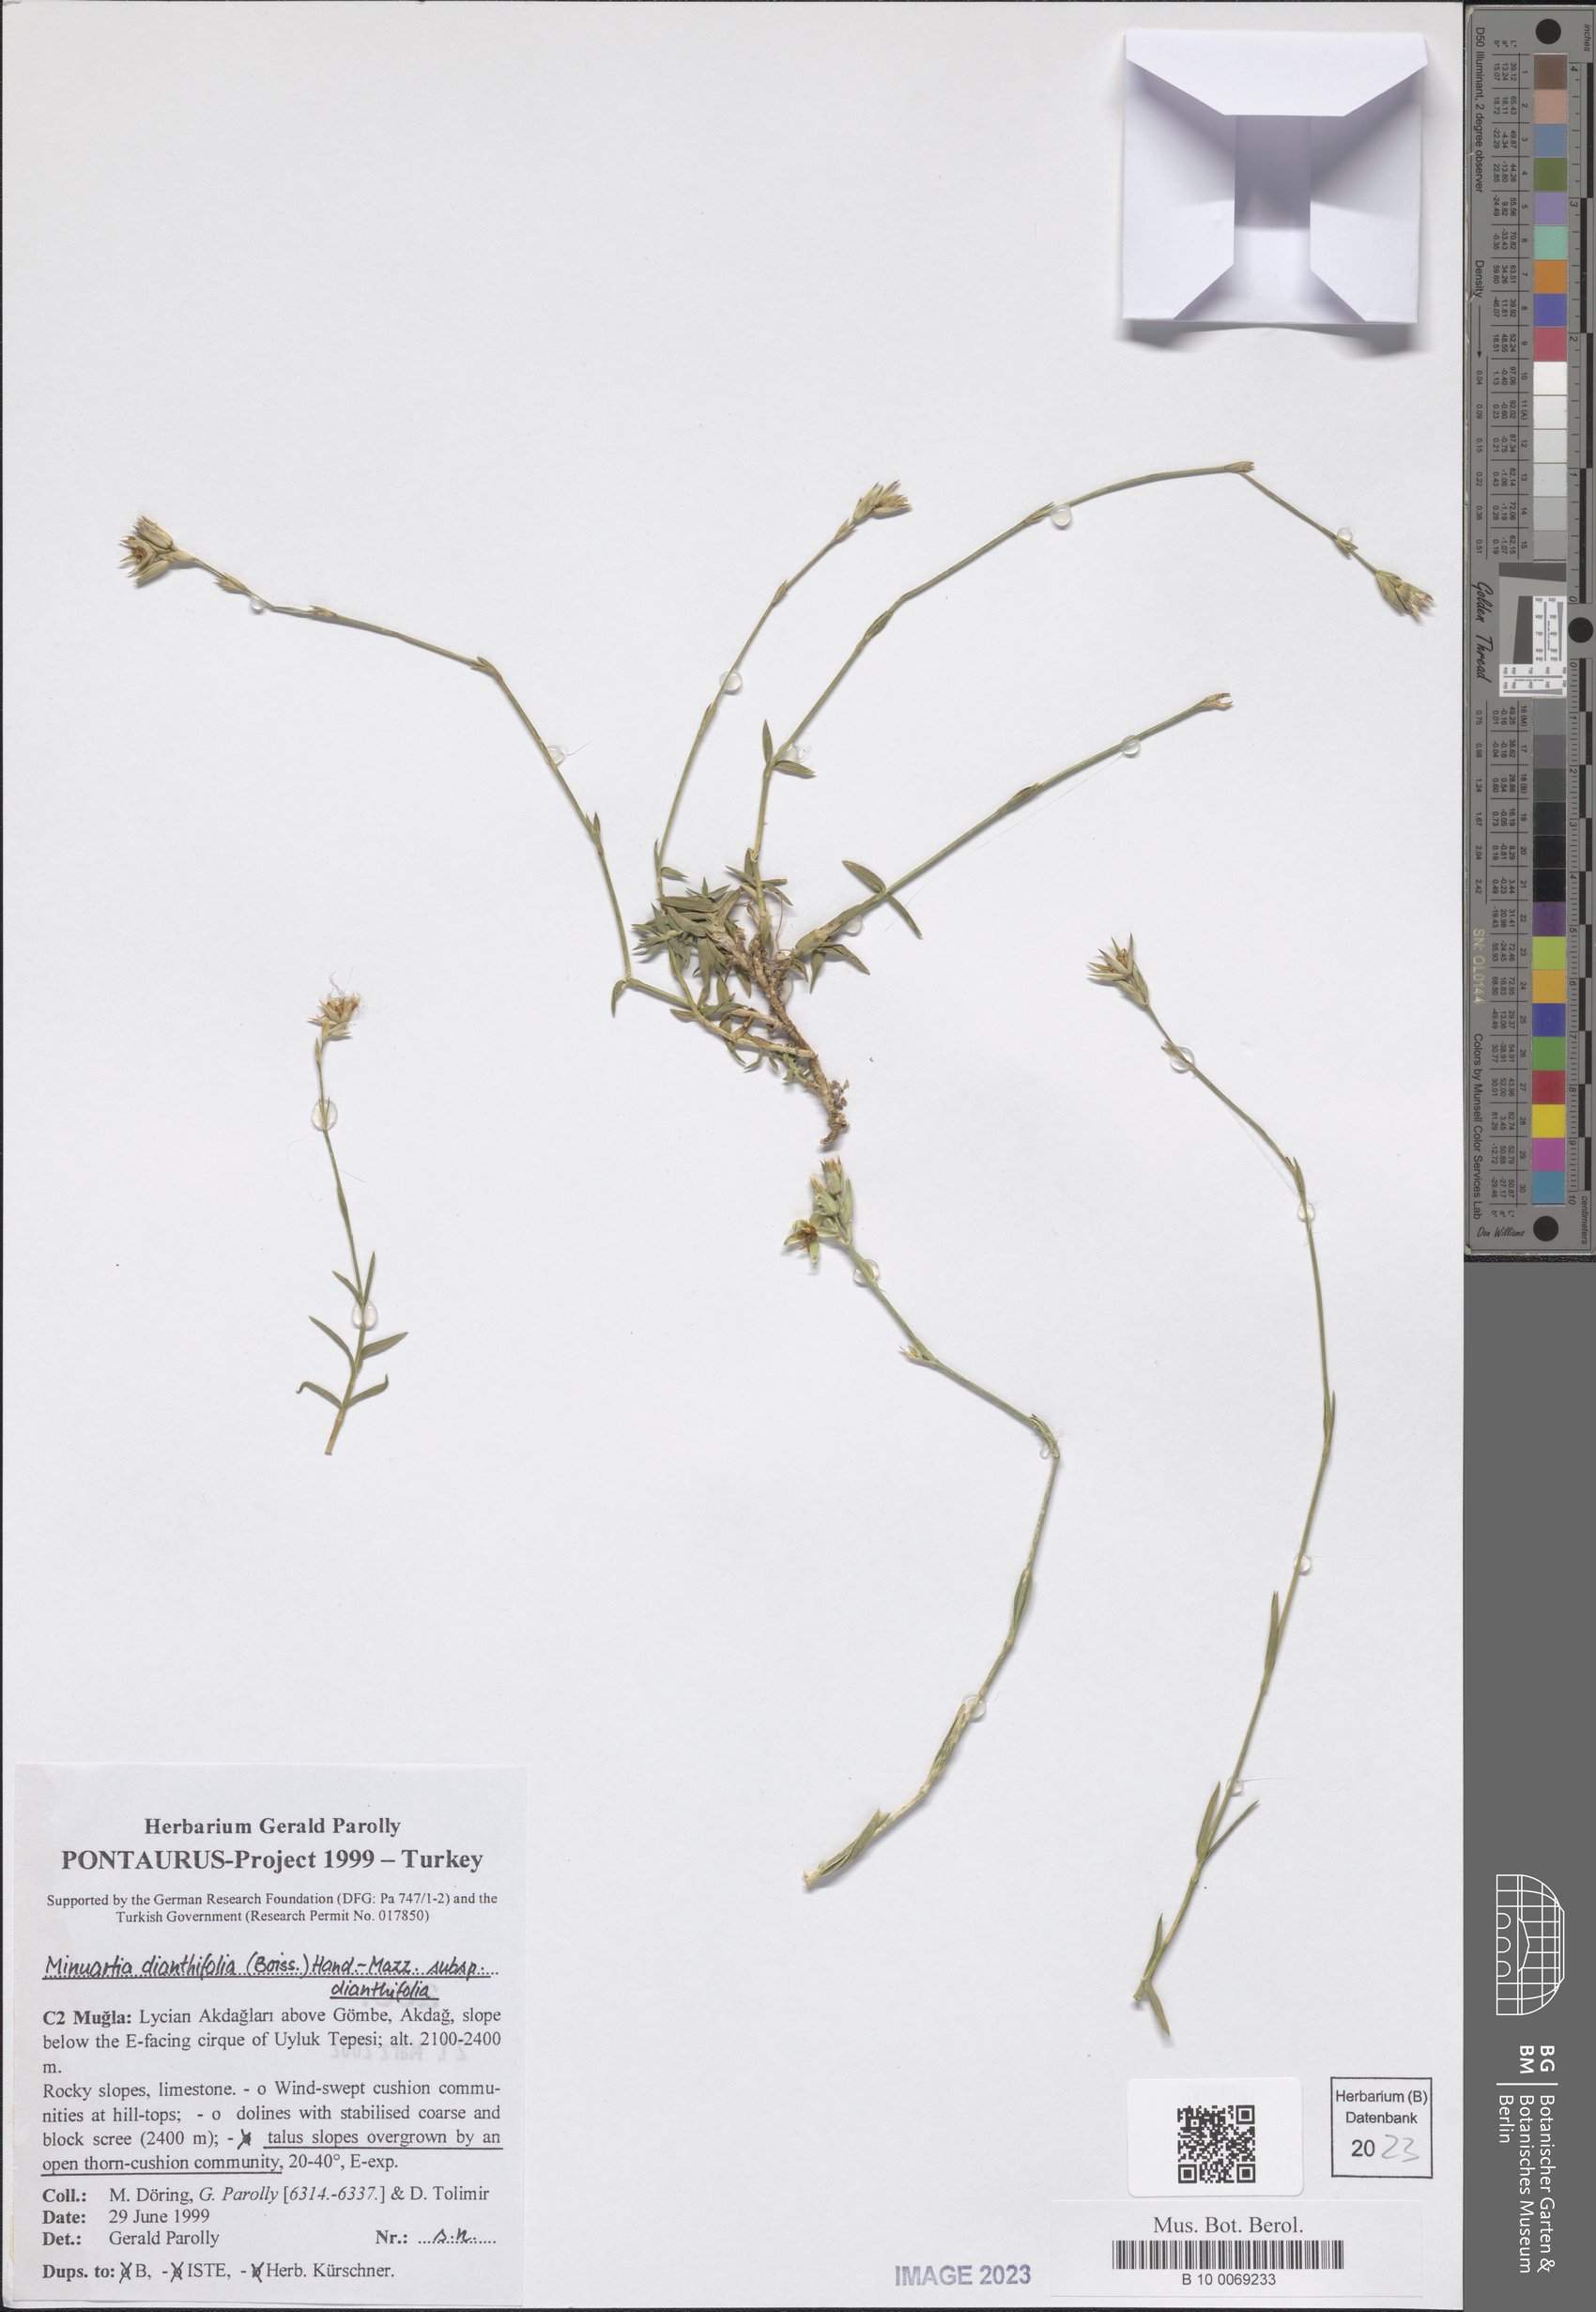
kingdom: Plantae
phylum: Tracheophyta
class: Magnoliopsida
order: Caryophyllales
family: Caryophyllaceae
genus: Minuartiella
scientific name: Minuartiella dianthifolia
